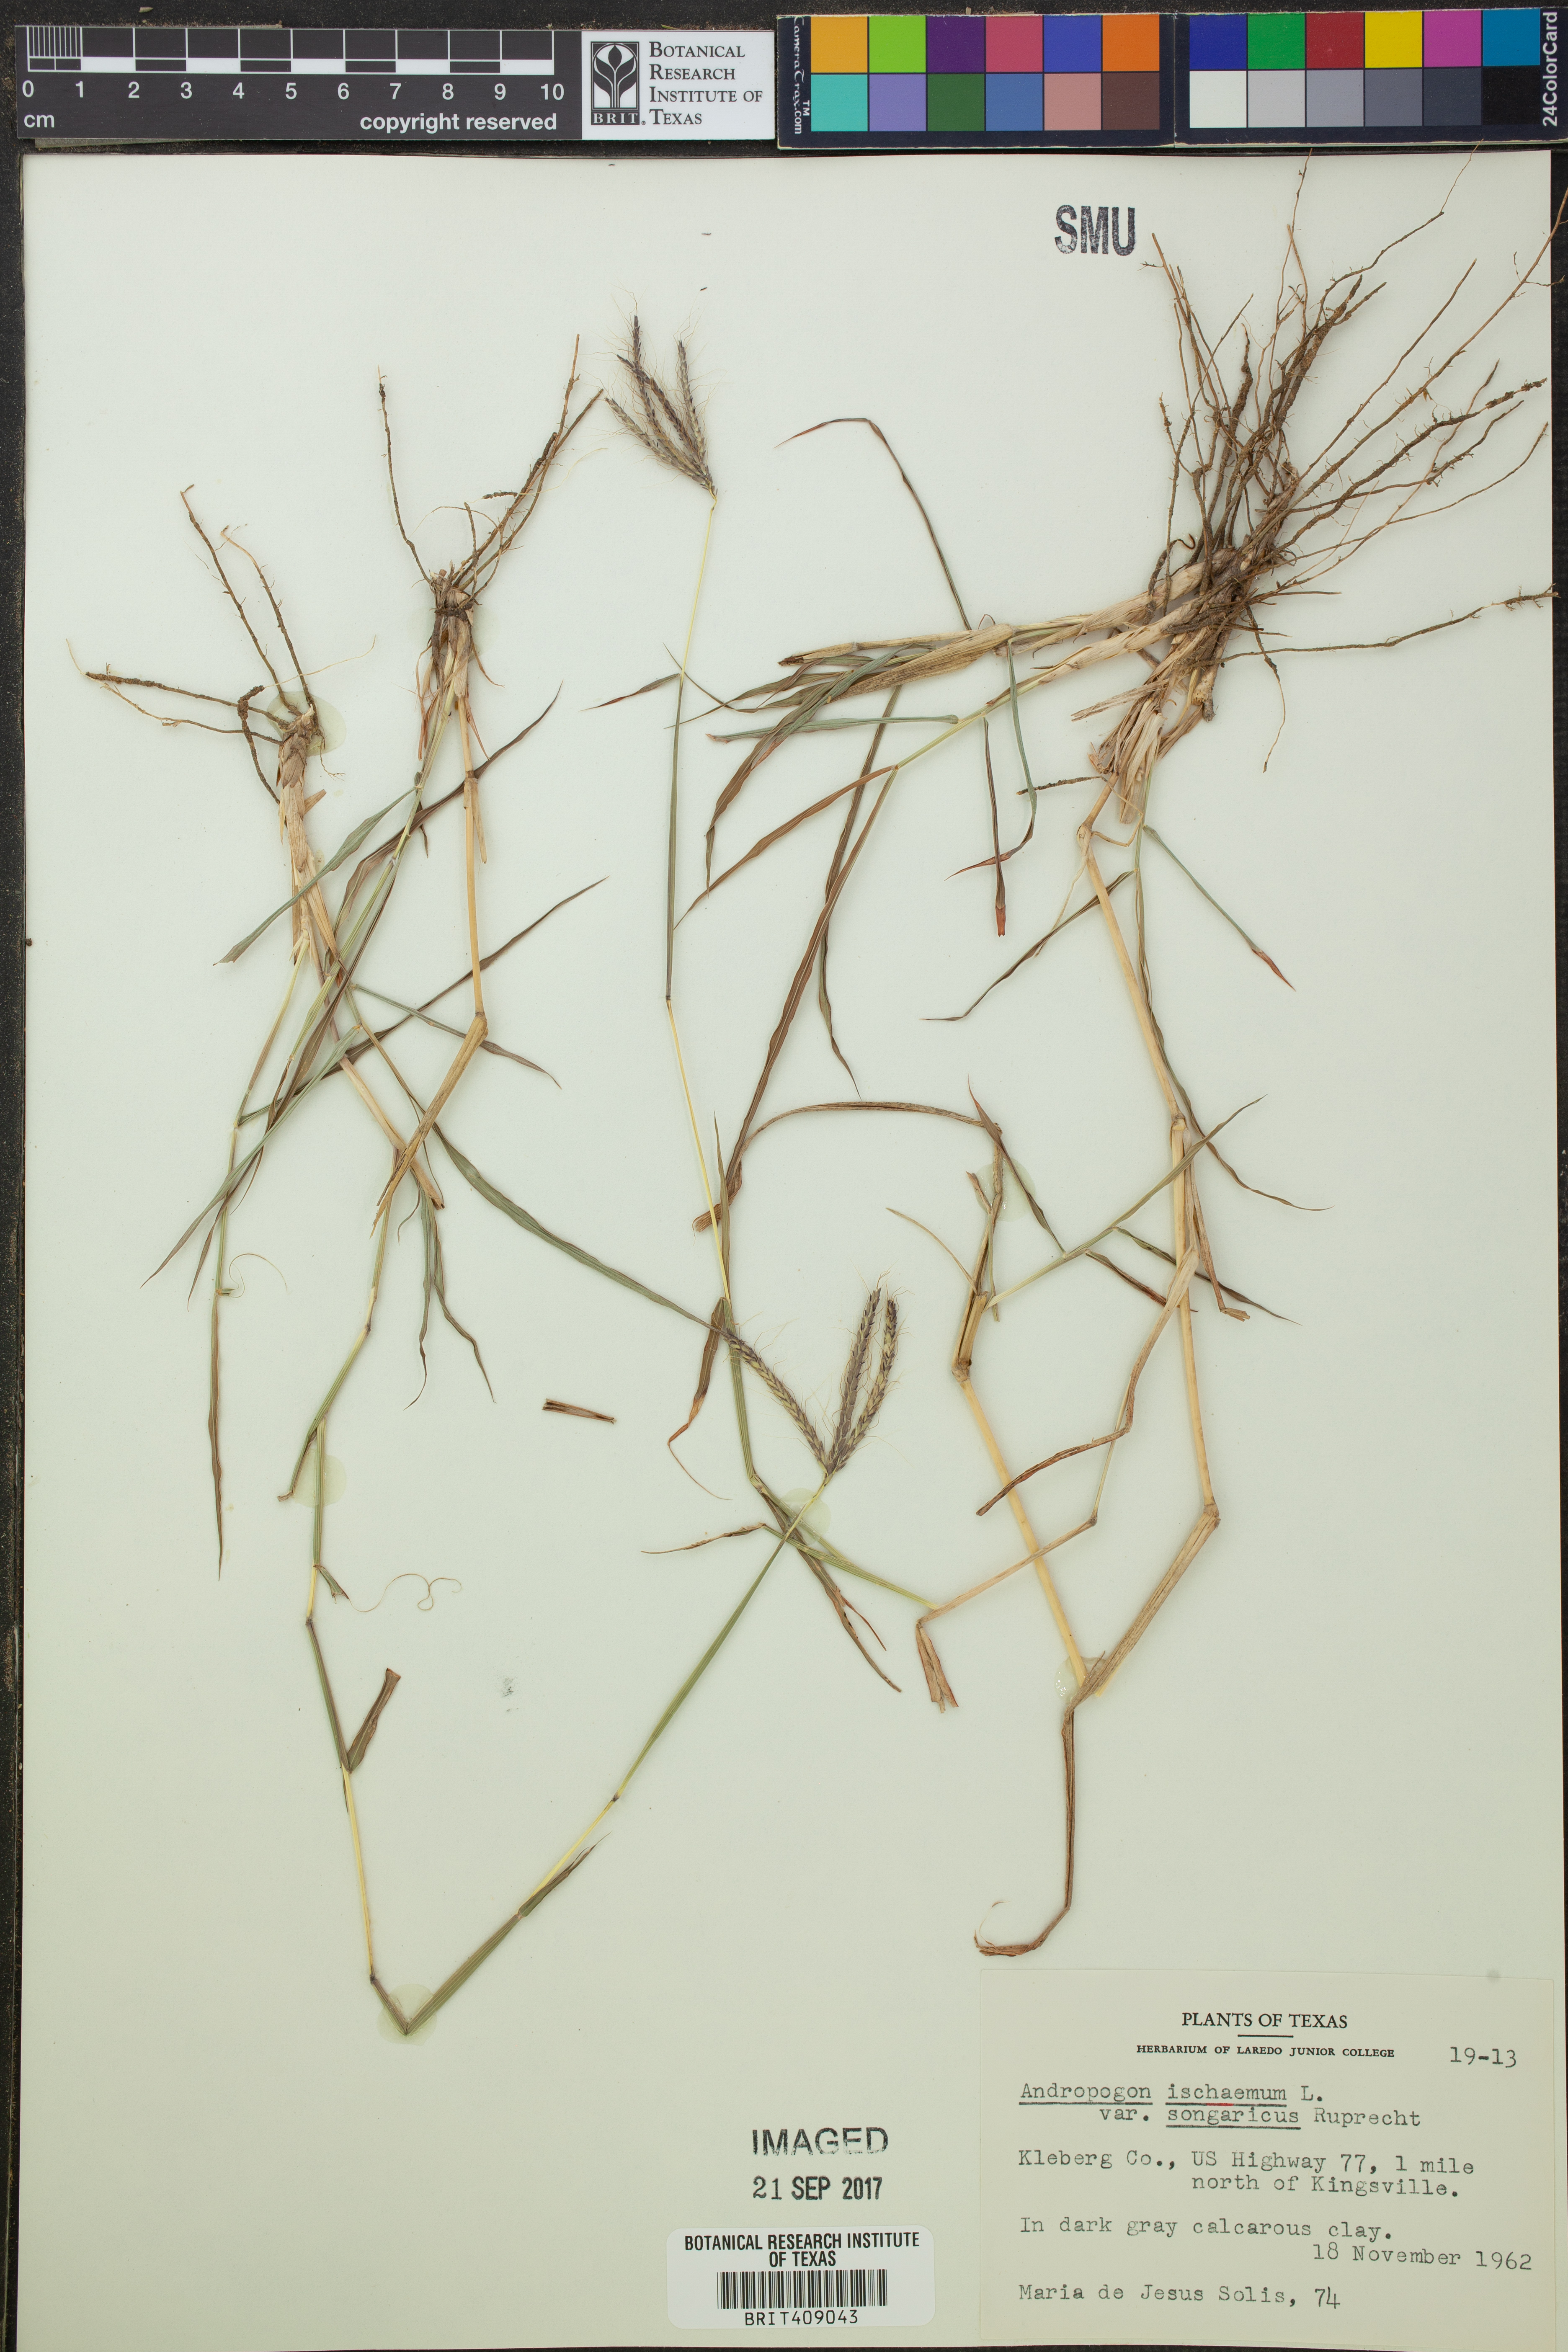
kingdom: Plantae
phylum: Tracheophyta
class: Liliopsida
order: Poales
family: Poaceae
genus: Bothriochloa
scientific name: Bothriochloa ischaemum
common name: Yellow bluestem
